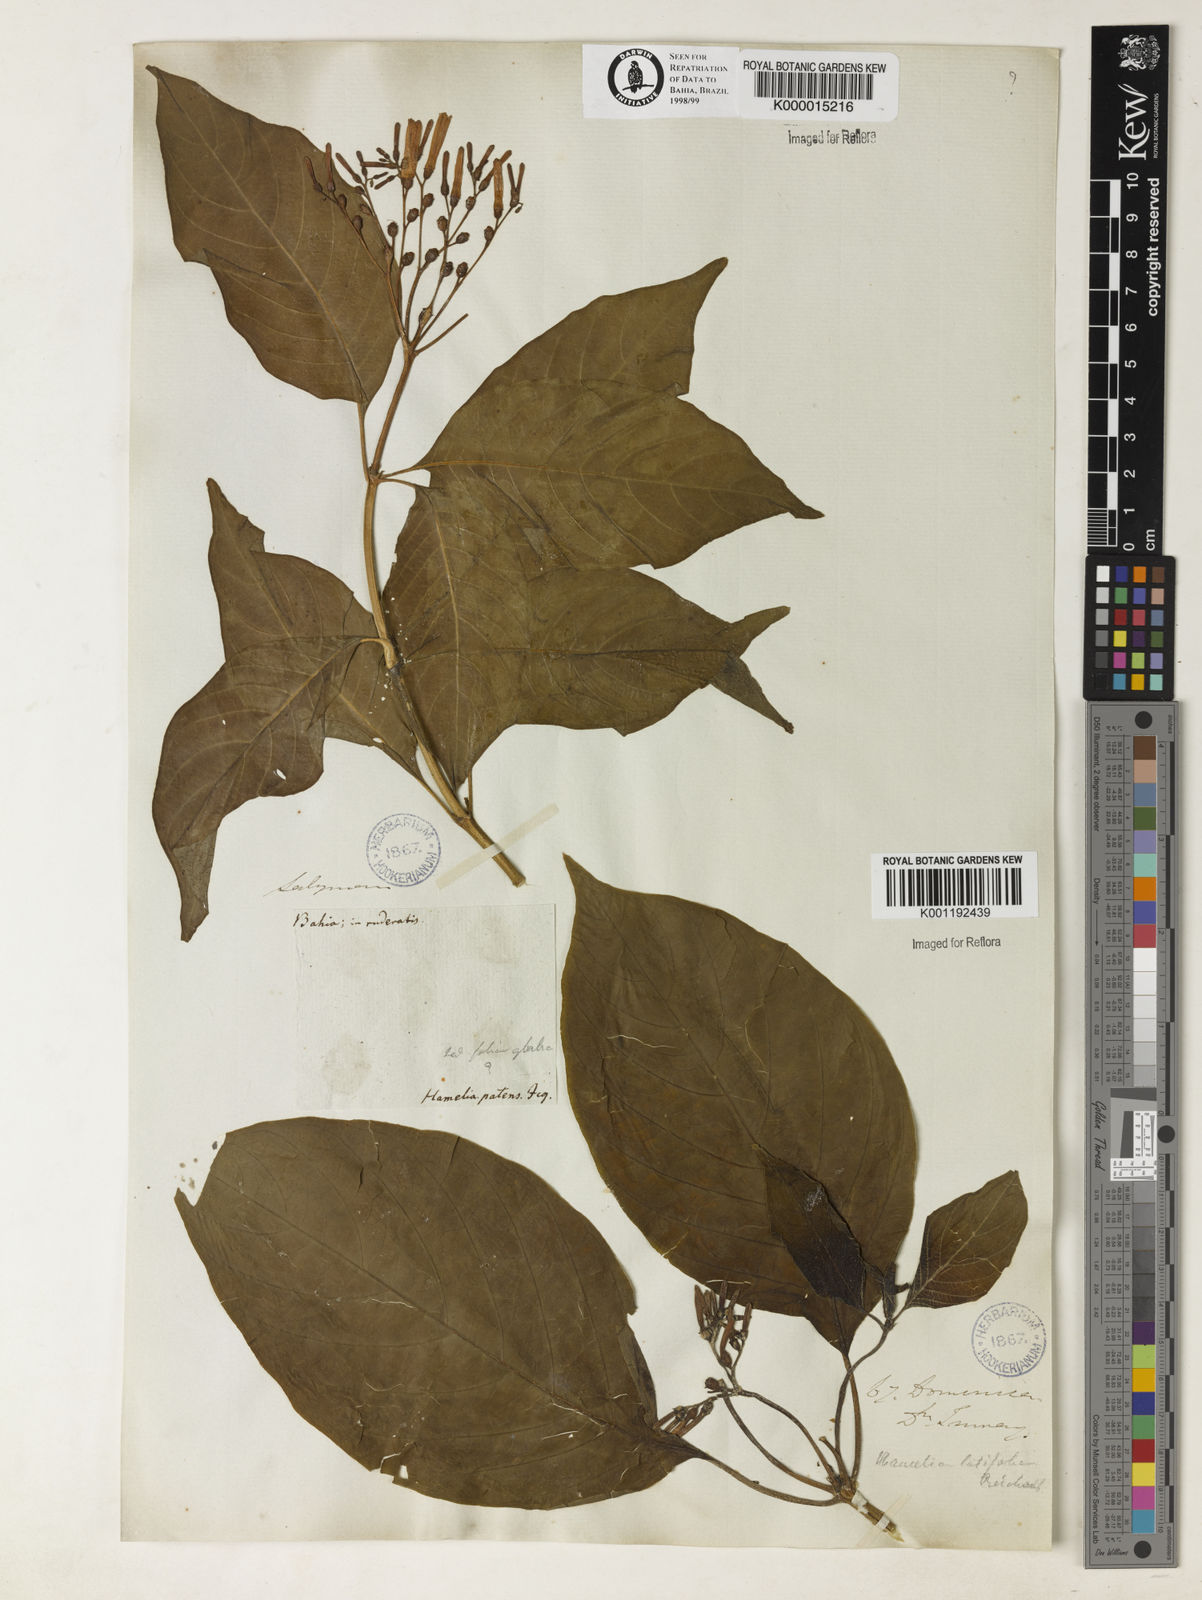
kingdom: Plantae
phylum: Tracheophyta
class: Magnoliopsida
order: Gentianales
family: Rubiaceae
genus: Hamelia
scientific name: Hamelia patens
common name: Redhead
